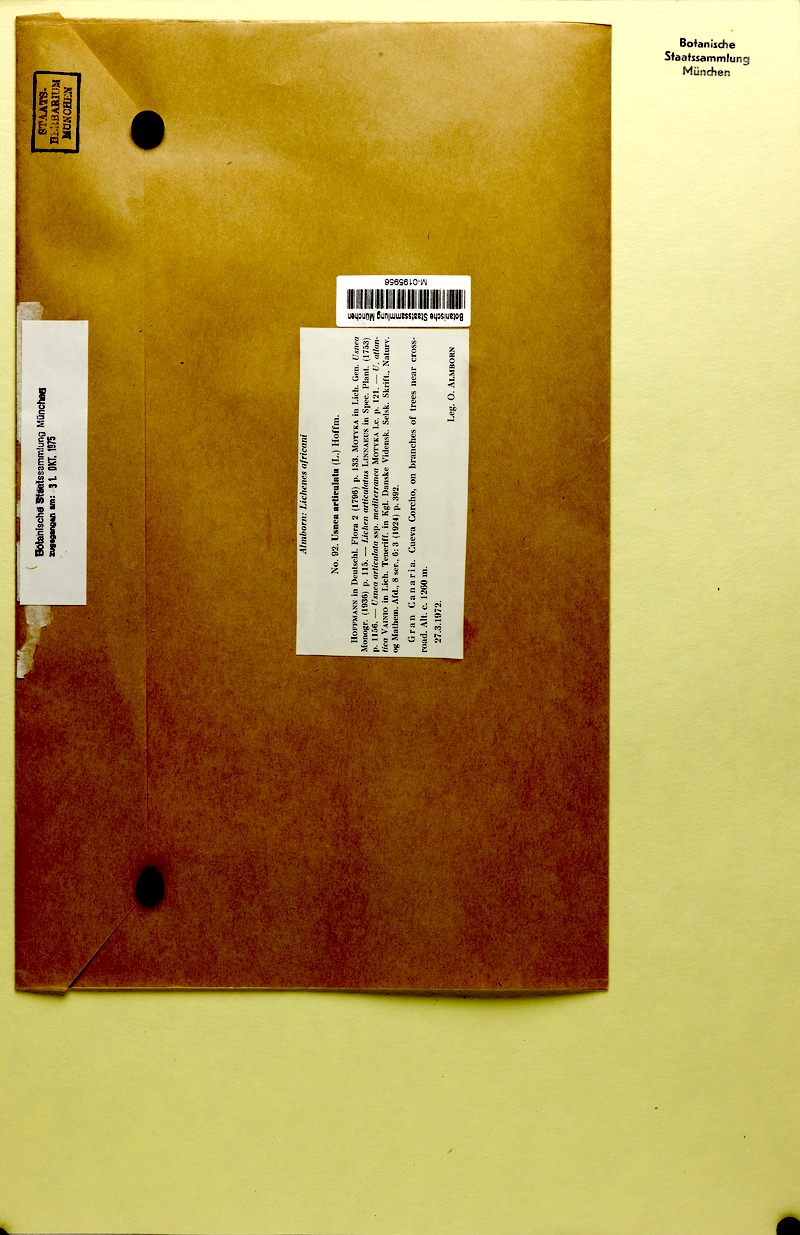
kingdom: Fungi
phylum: Ascomycota
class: Lecanoromycetes
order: Lecanorales
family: Parmeliaceae
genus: Usnea
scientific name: Usnea articulata
